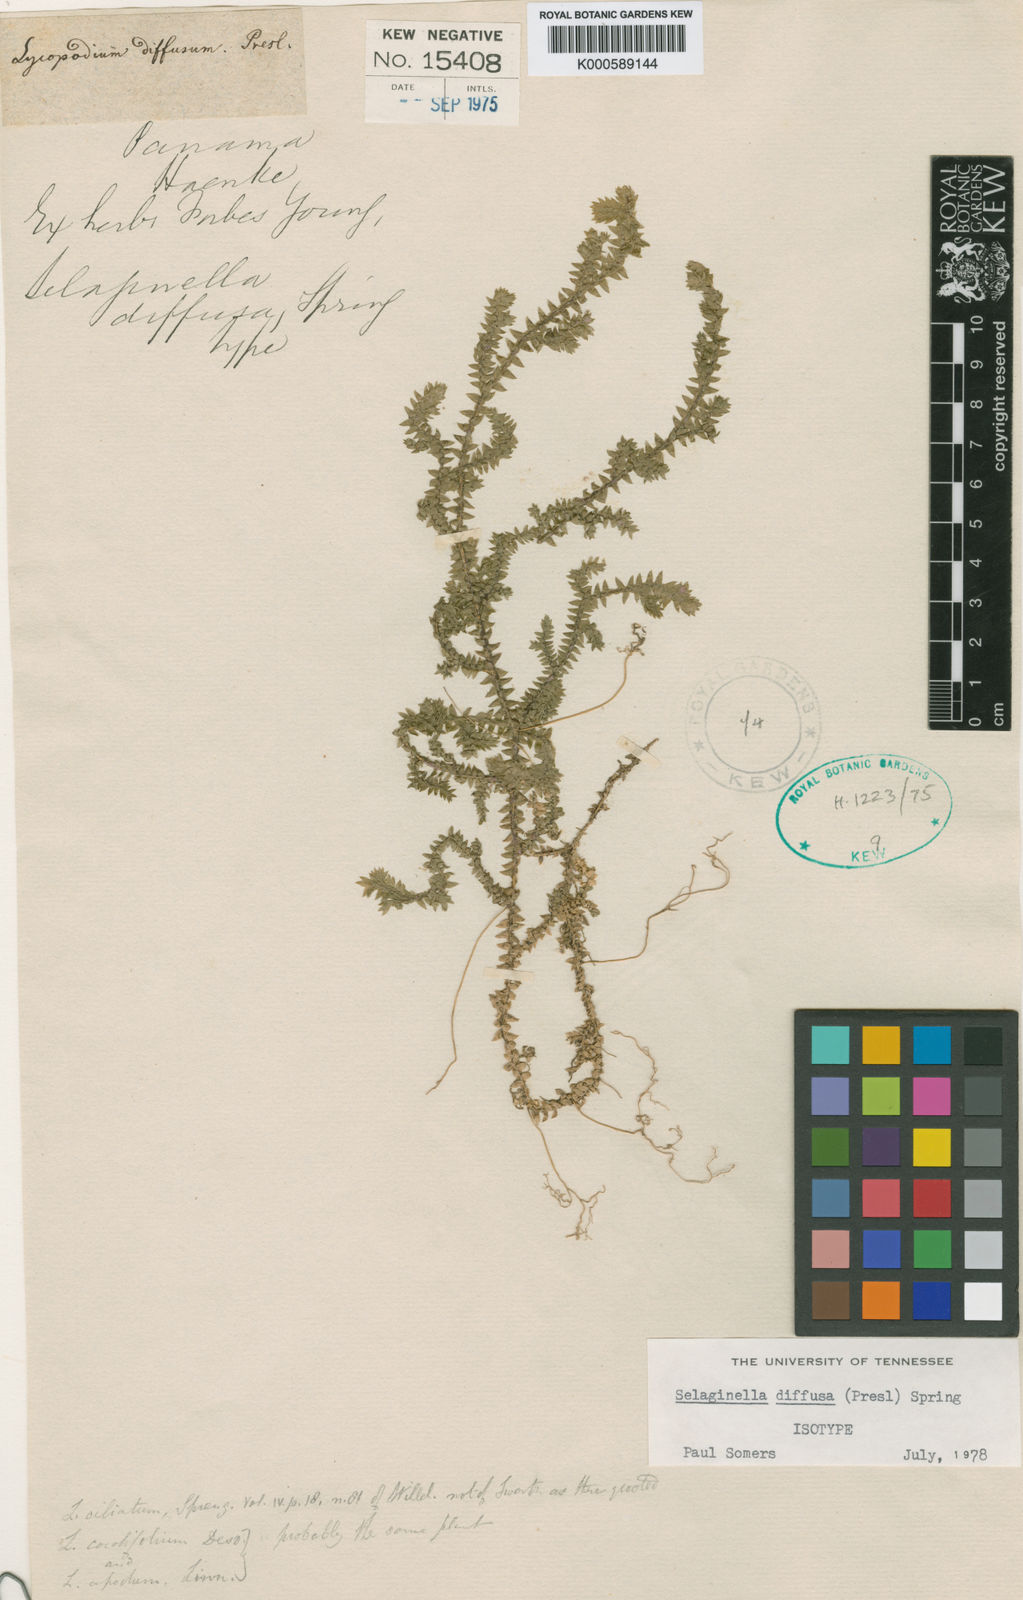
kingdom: Plantae
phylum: Tracheophyta
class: Lycopodiopsida
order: Selaginellales
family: Selaginellaceae
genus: Selaginella
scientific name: Selaginella diffusa
